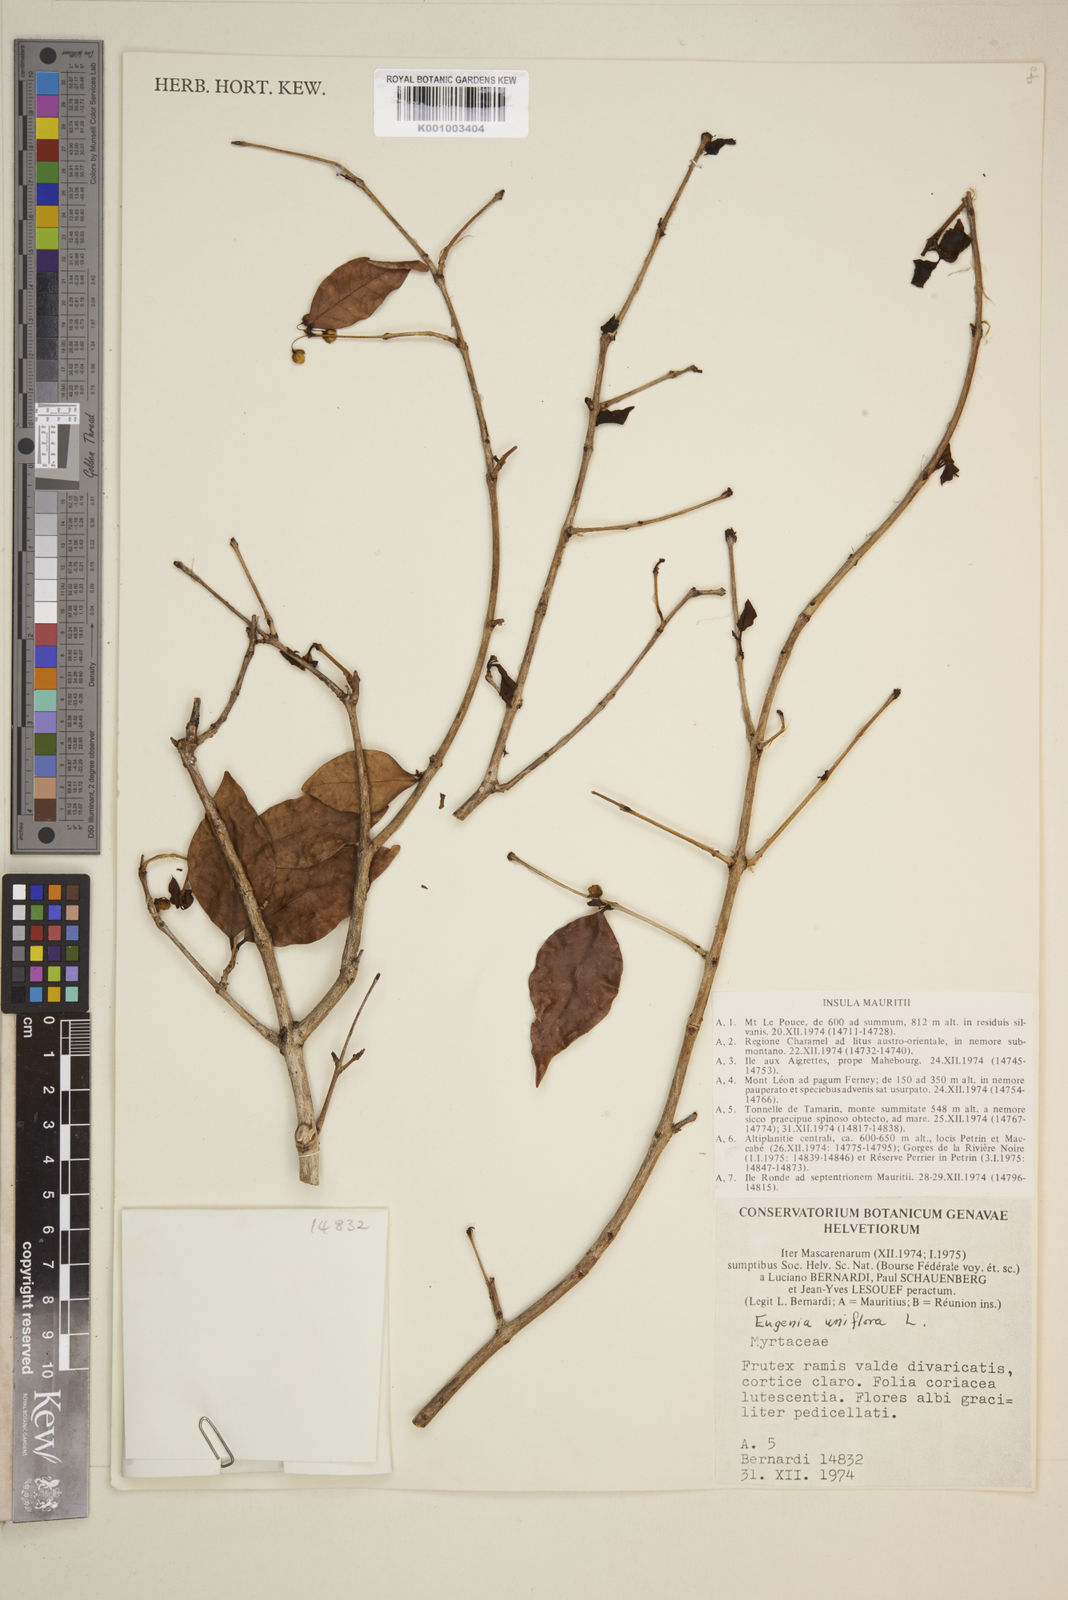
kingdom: Plantae
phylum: Tracheophyta
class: Magnoliopsida
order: Myrtales
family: Myrtaceae
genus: Eugenia
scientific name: Eugenia uniflora
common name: Surinam cherry
